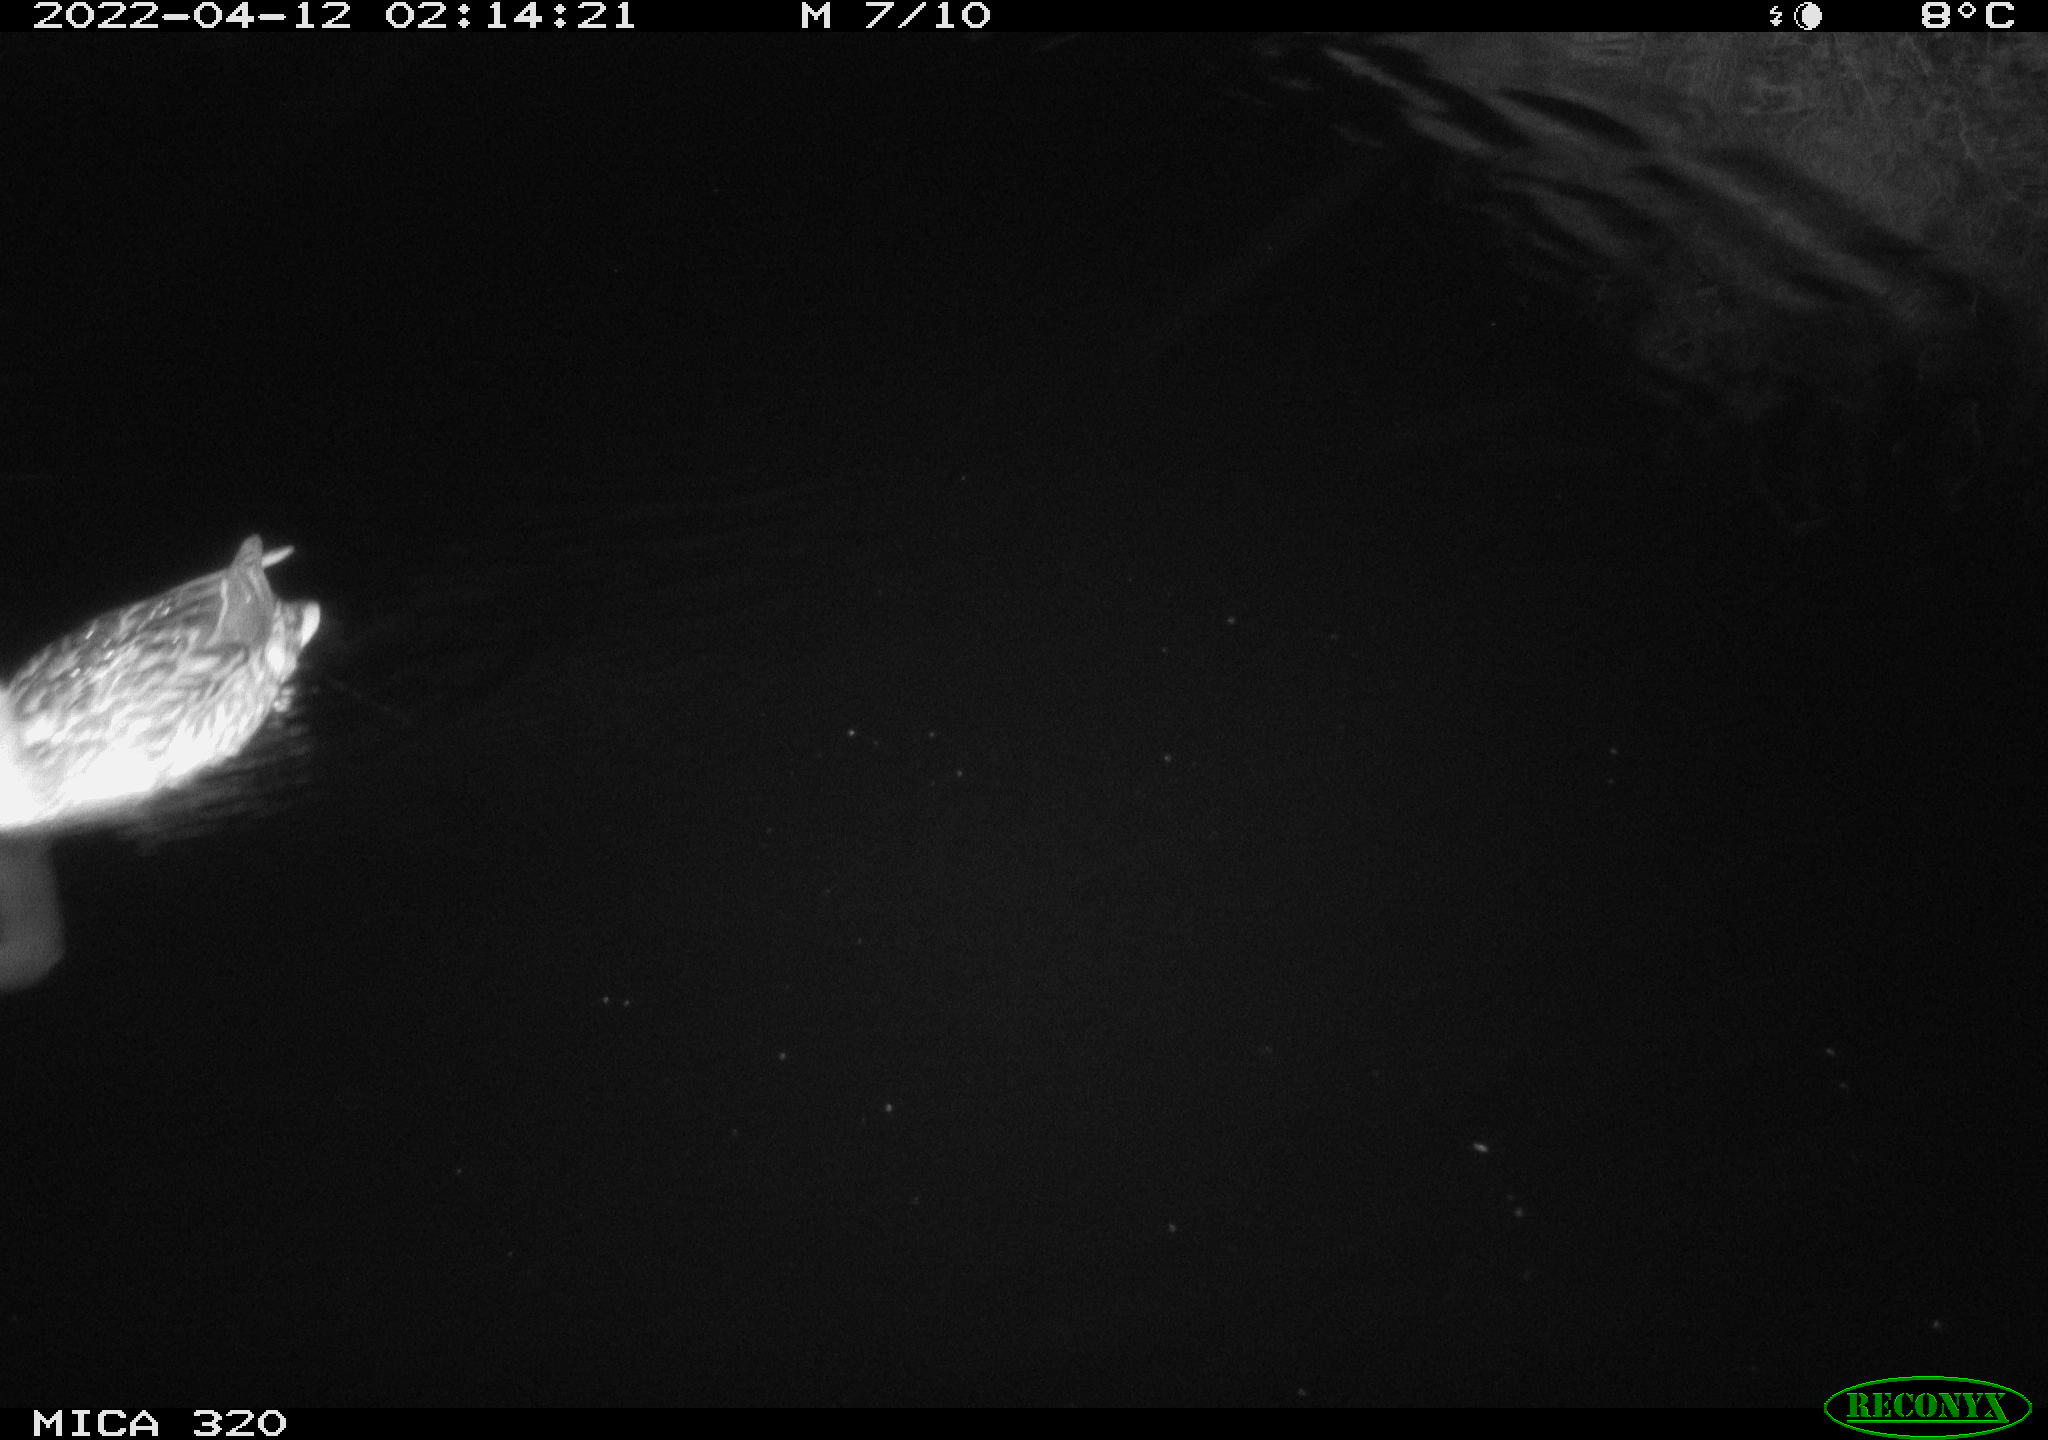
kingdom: Animalia
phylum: Chordata
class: Aves
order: Anseriformes
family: Anatidae
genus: Anas
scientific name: Anas platyrhynchos
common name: Mallard
